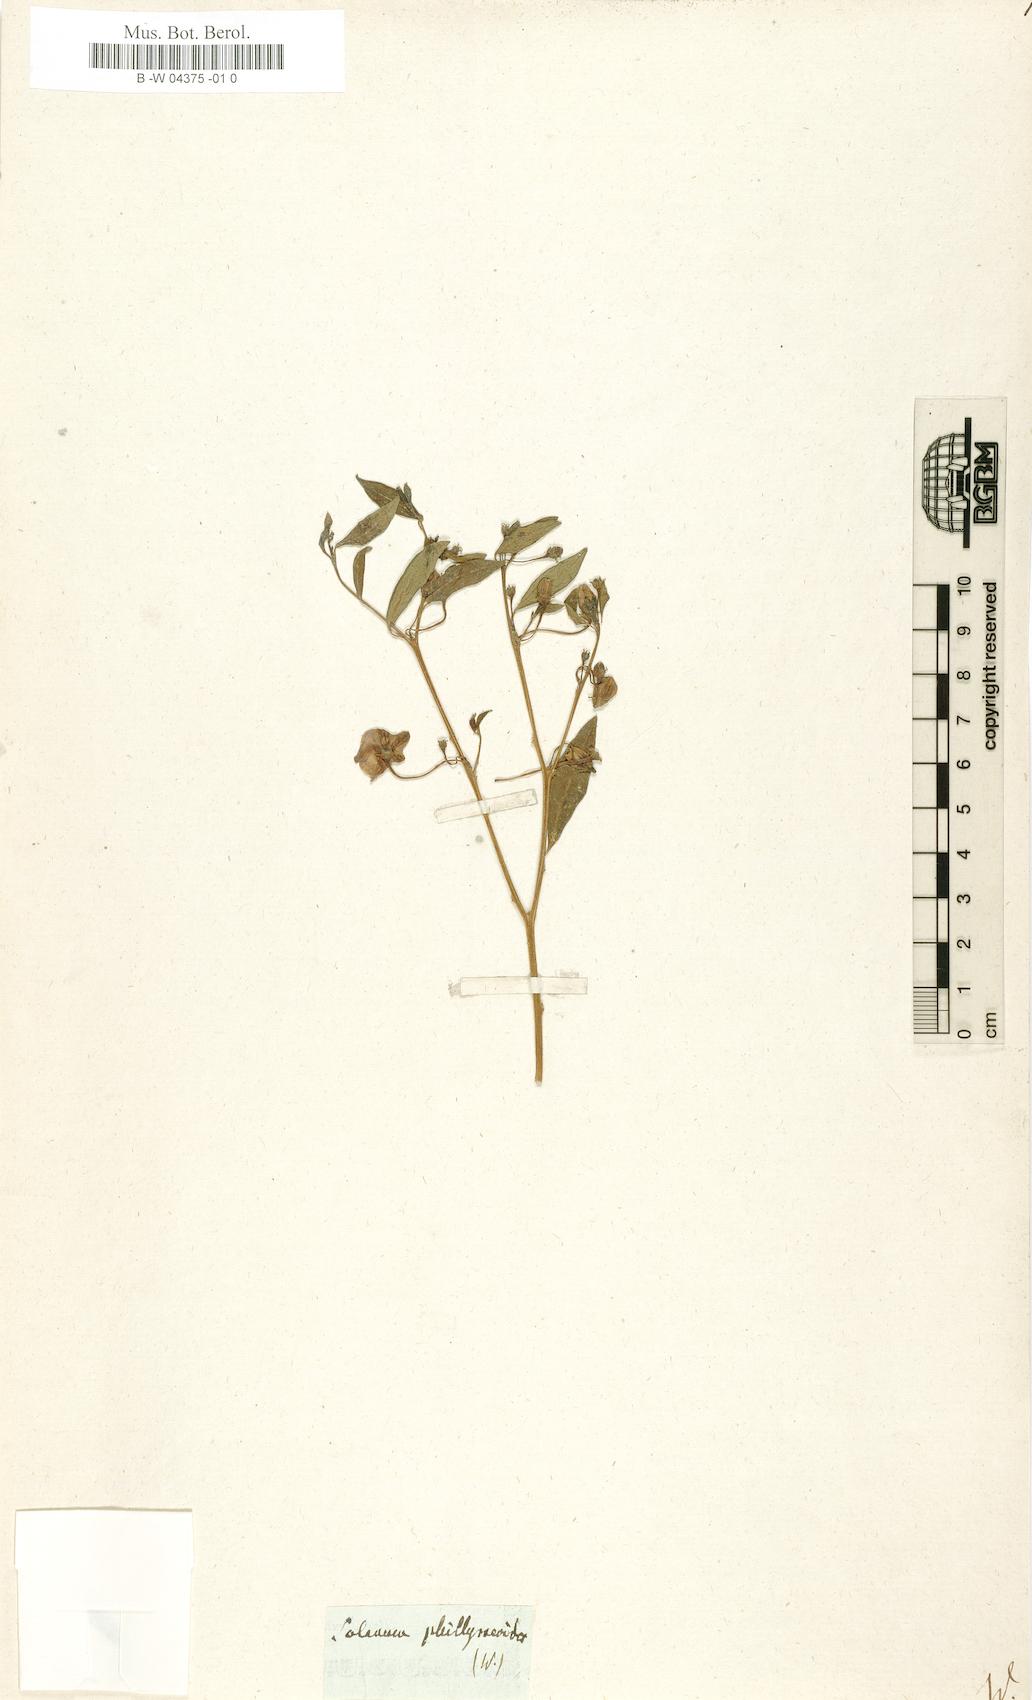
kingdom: Plantae
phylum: Tracheophyta
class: Magnoliopsida
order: Solanales
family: Solanaceae
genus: Lycianthes
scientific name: Lycianthes lycioides
